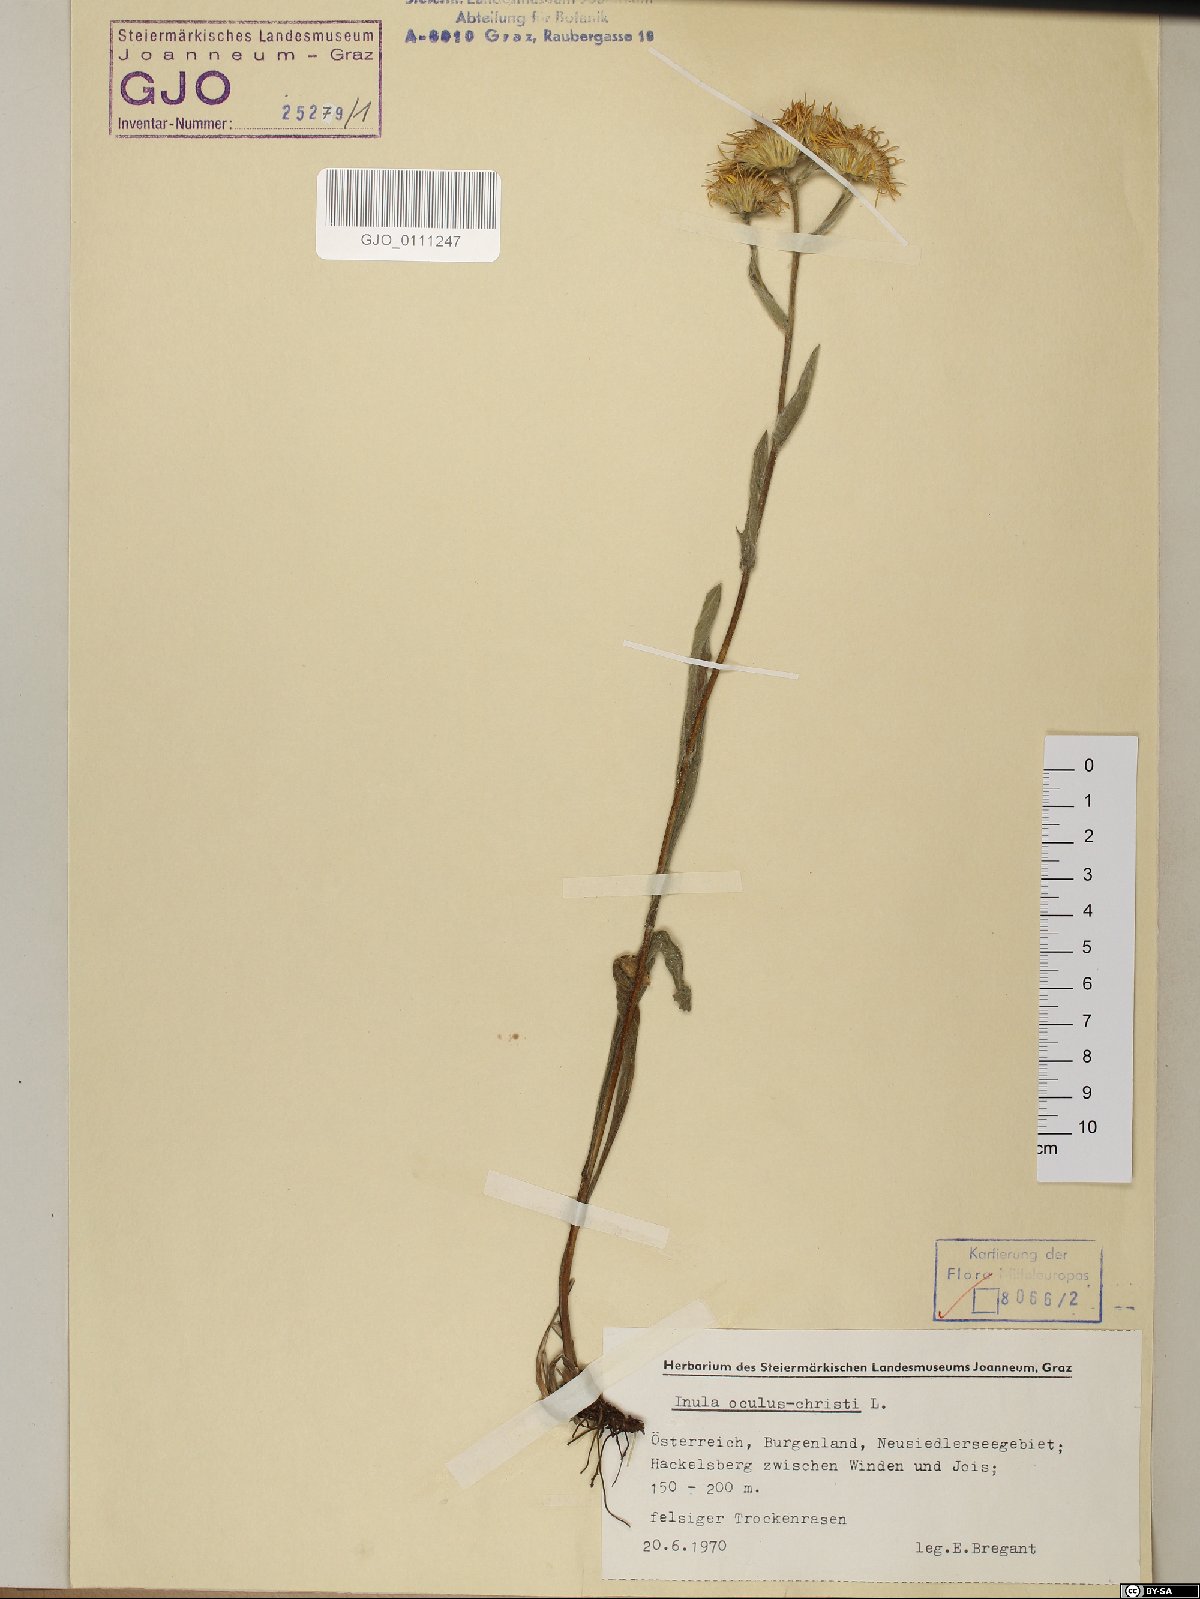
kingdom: Plantae
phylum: Tracheophyta
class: Magnoliopsida
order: Asterales
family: Asteraceae
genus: Pentanema
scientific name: Pentanema oculus-christi
